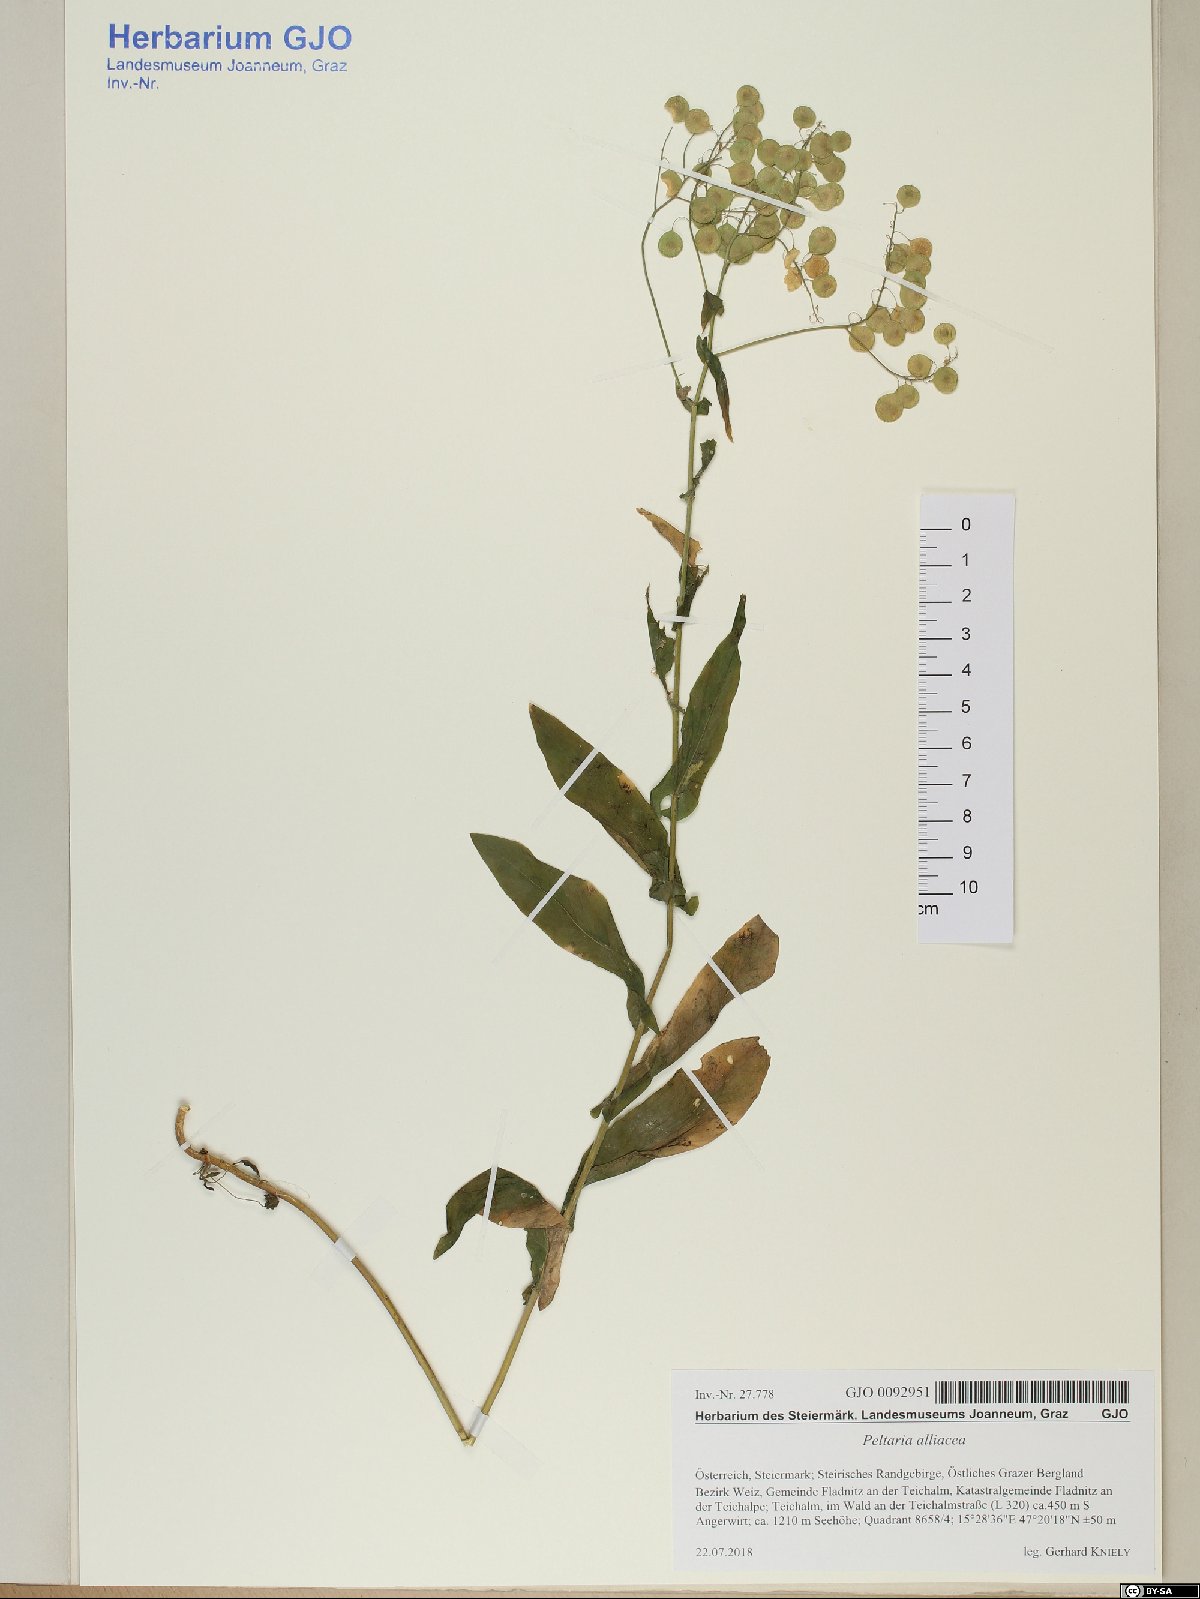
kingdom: Plantae
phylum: Tracheophyta
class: Magnoliopsida
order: Brassicales
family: Brassicaceae
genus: Peltaria
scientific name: Peltaria alliacea
